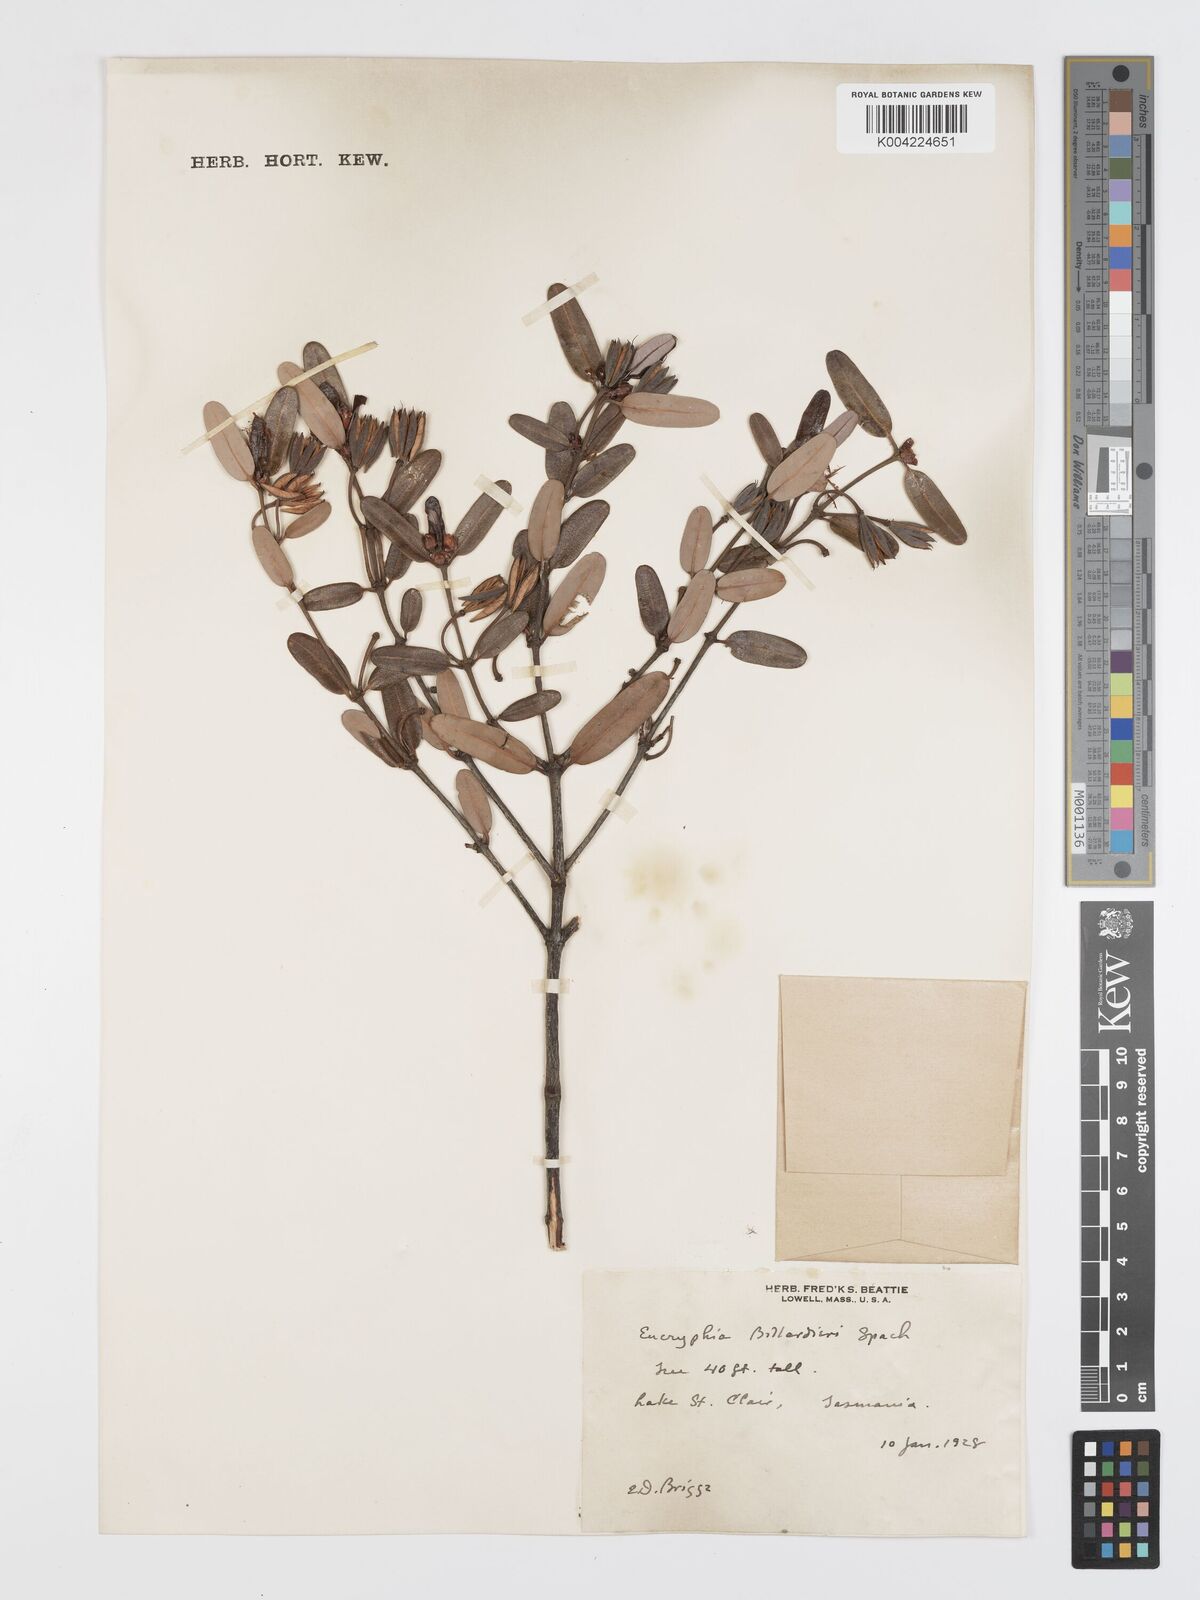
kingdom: Plantae
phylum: Tracheophyta
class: Magnoliopsida
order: Oxalidales
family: Cunoniaceae
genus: Eucryphia
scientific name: Eucryphia lucida
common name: Leatherwood
